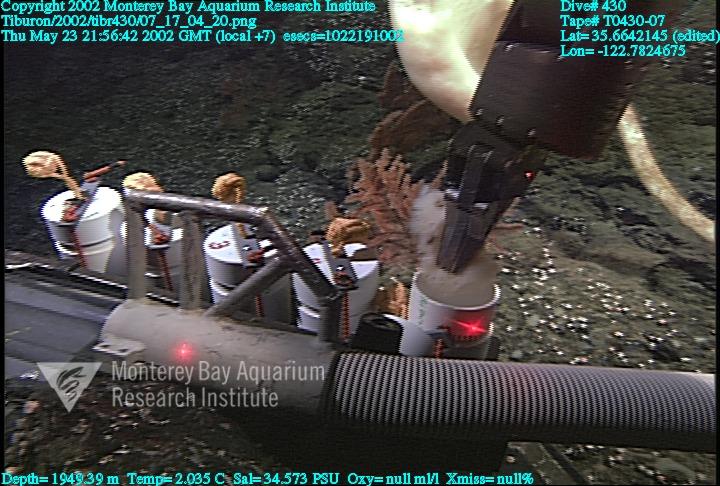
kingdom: Animalia
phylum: Porifera
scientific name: Porifera
